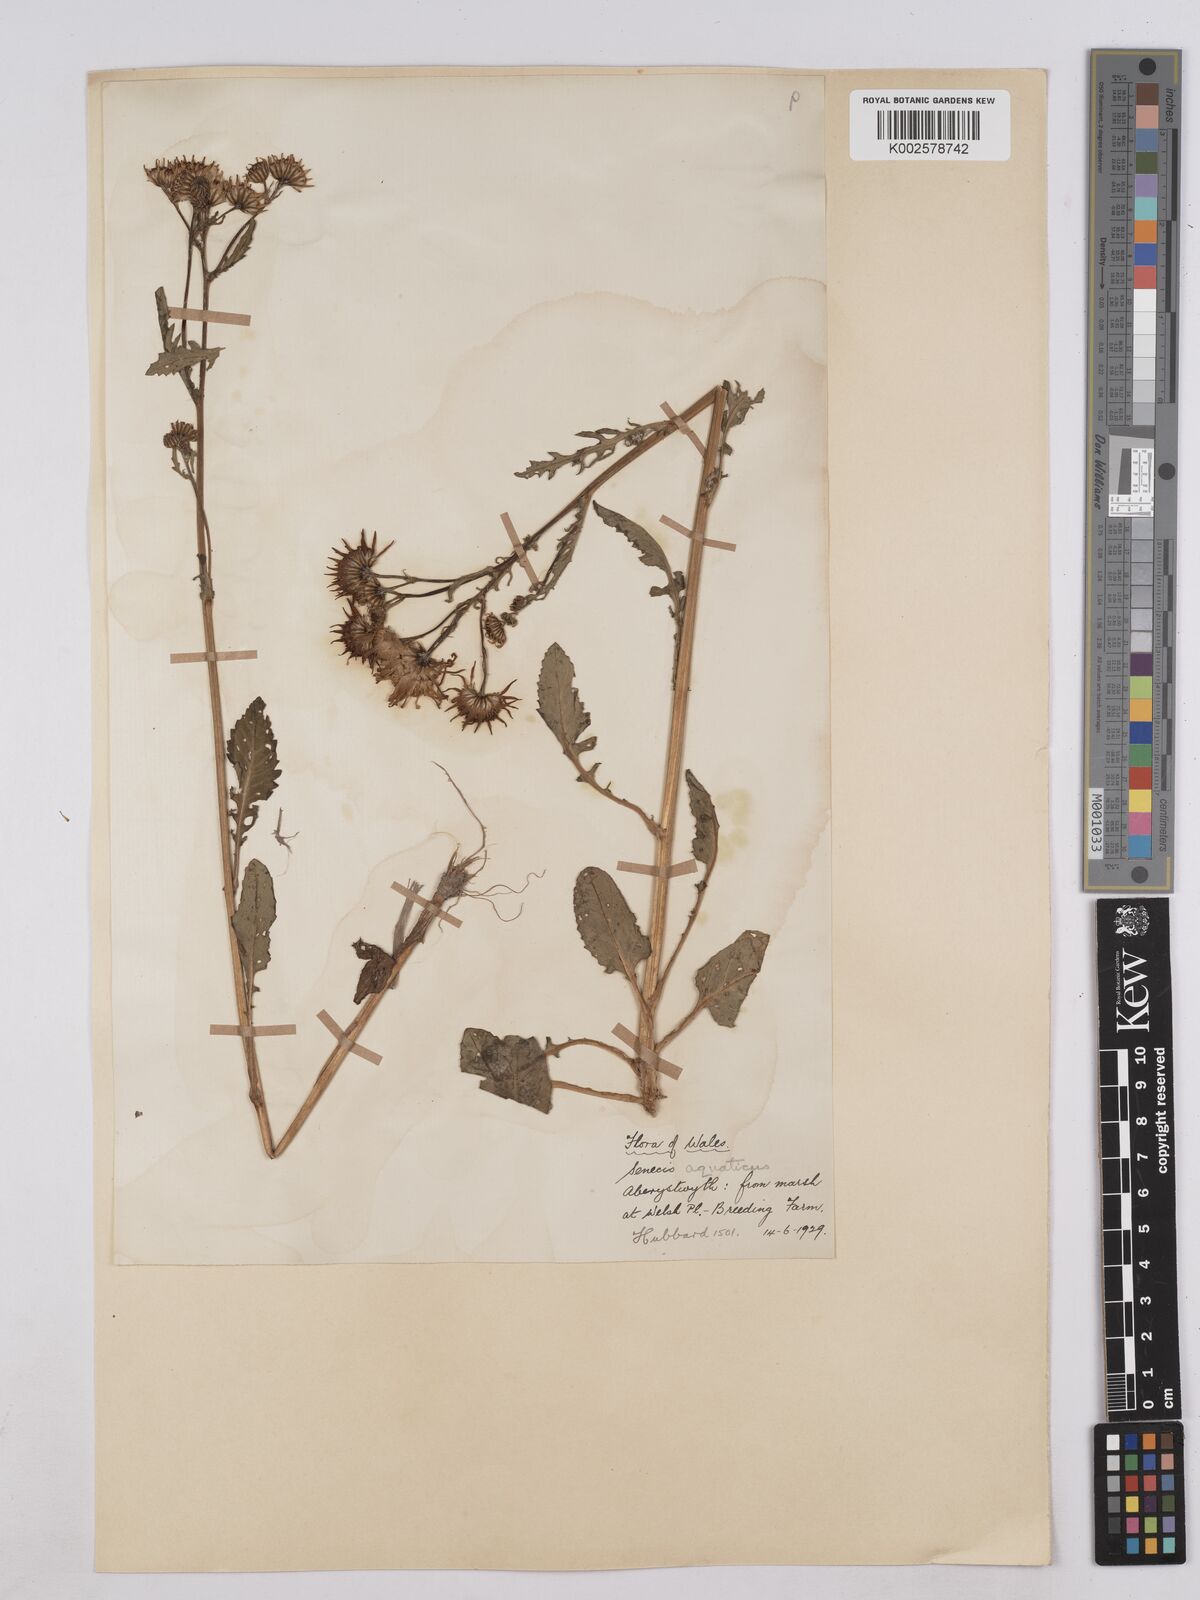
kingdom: Plantae
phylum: Tracheophyta
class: Magnoliopsida
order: Asterales
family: Asteraceae
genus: Jacobaea
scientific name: Jacobaea aquatica
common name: Water ragwort
